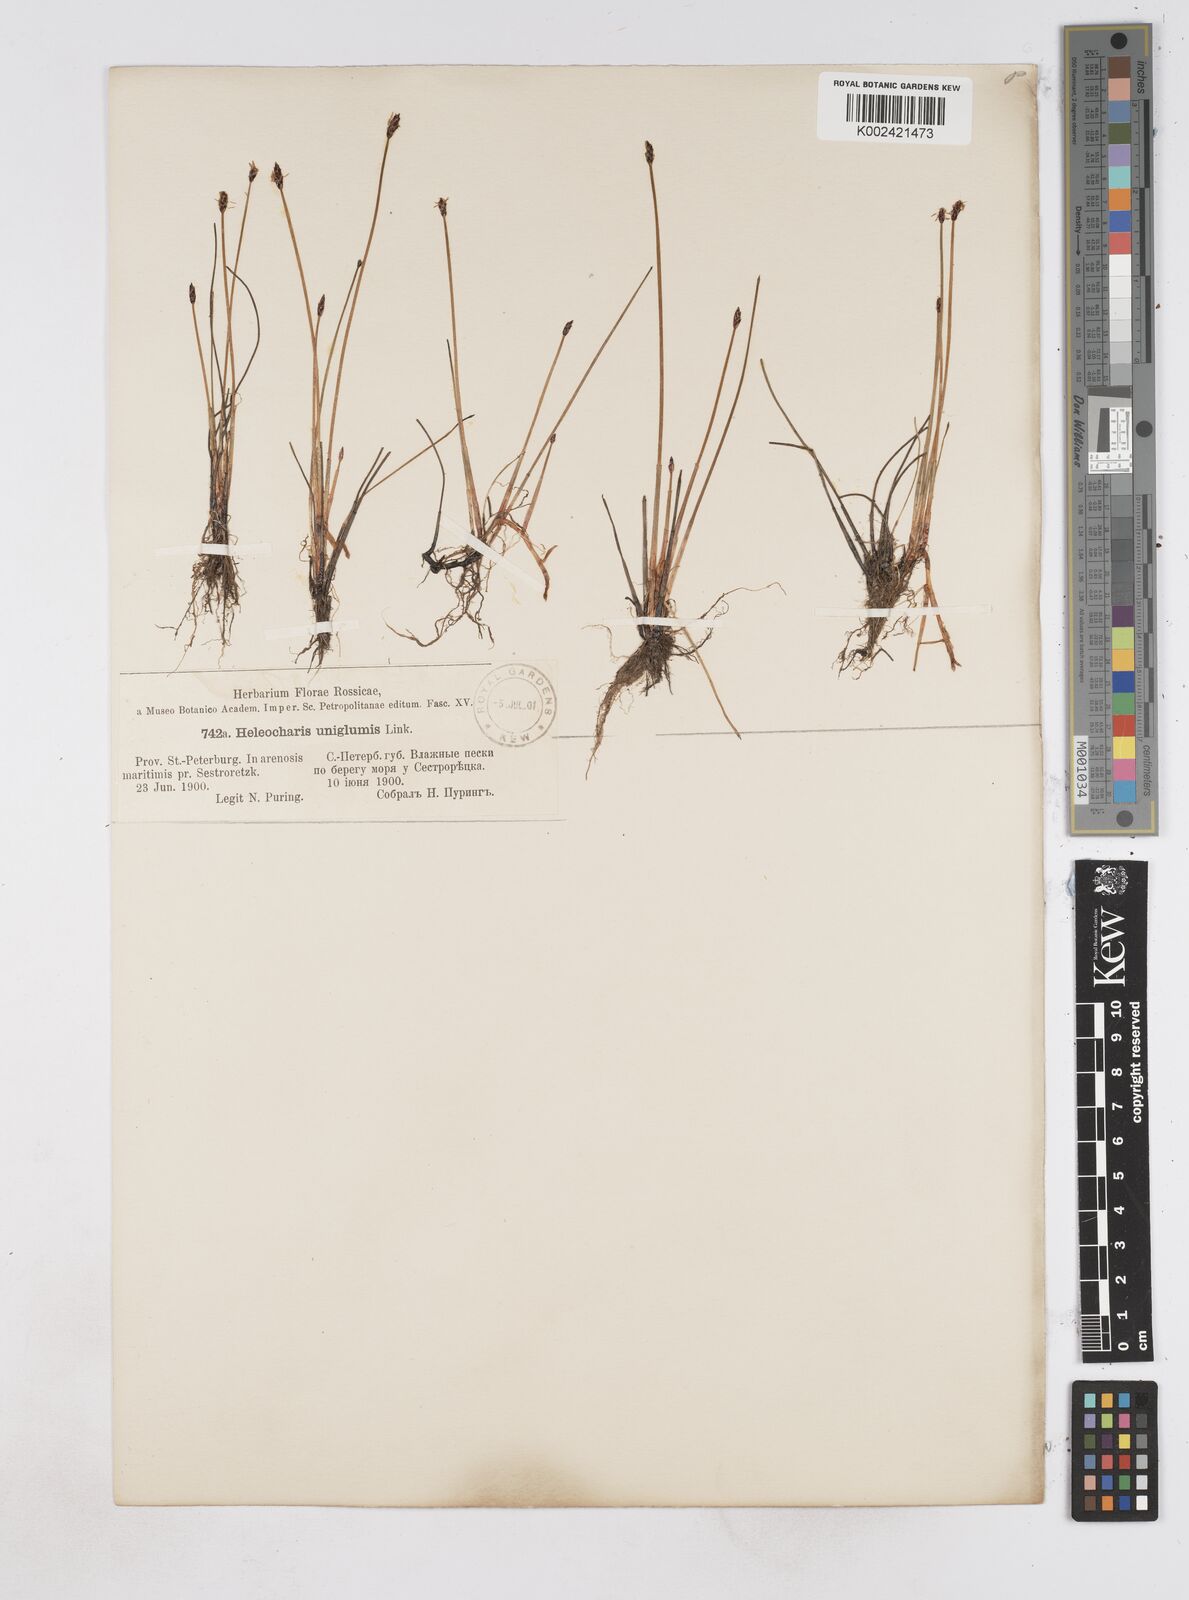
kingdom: Plantae
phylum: Tracheophyta
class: Liliopsida
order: Poales
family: Cyperaceae
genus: Eleocharis
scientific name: Eleocharis uniglumis
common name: Slender spike-rush
